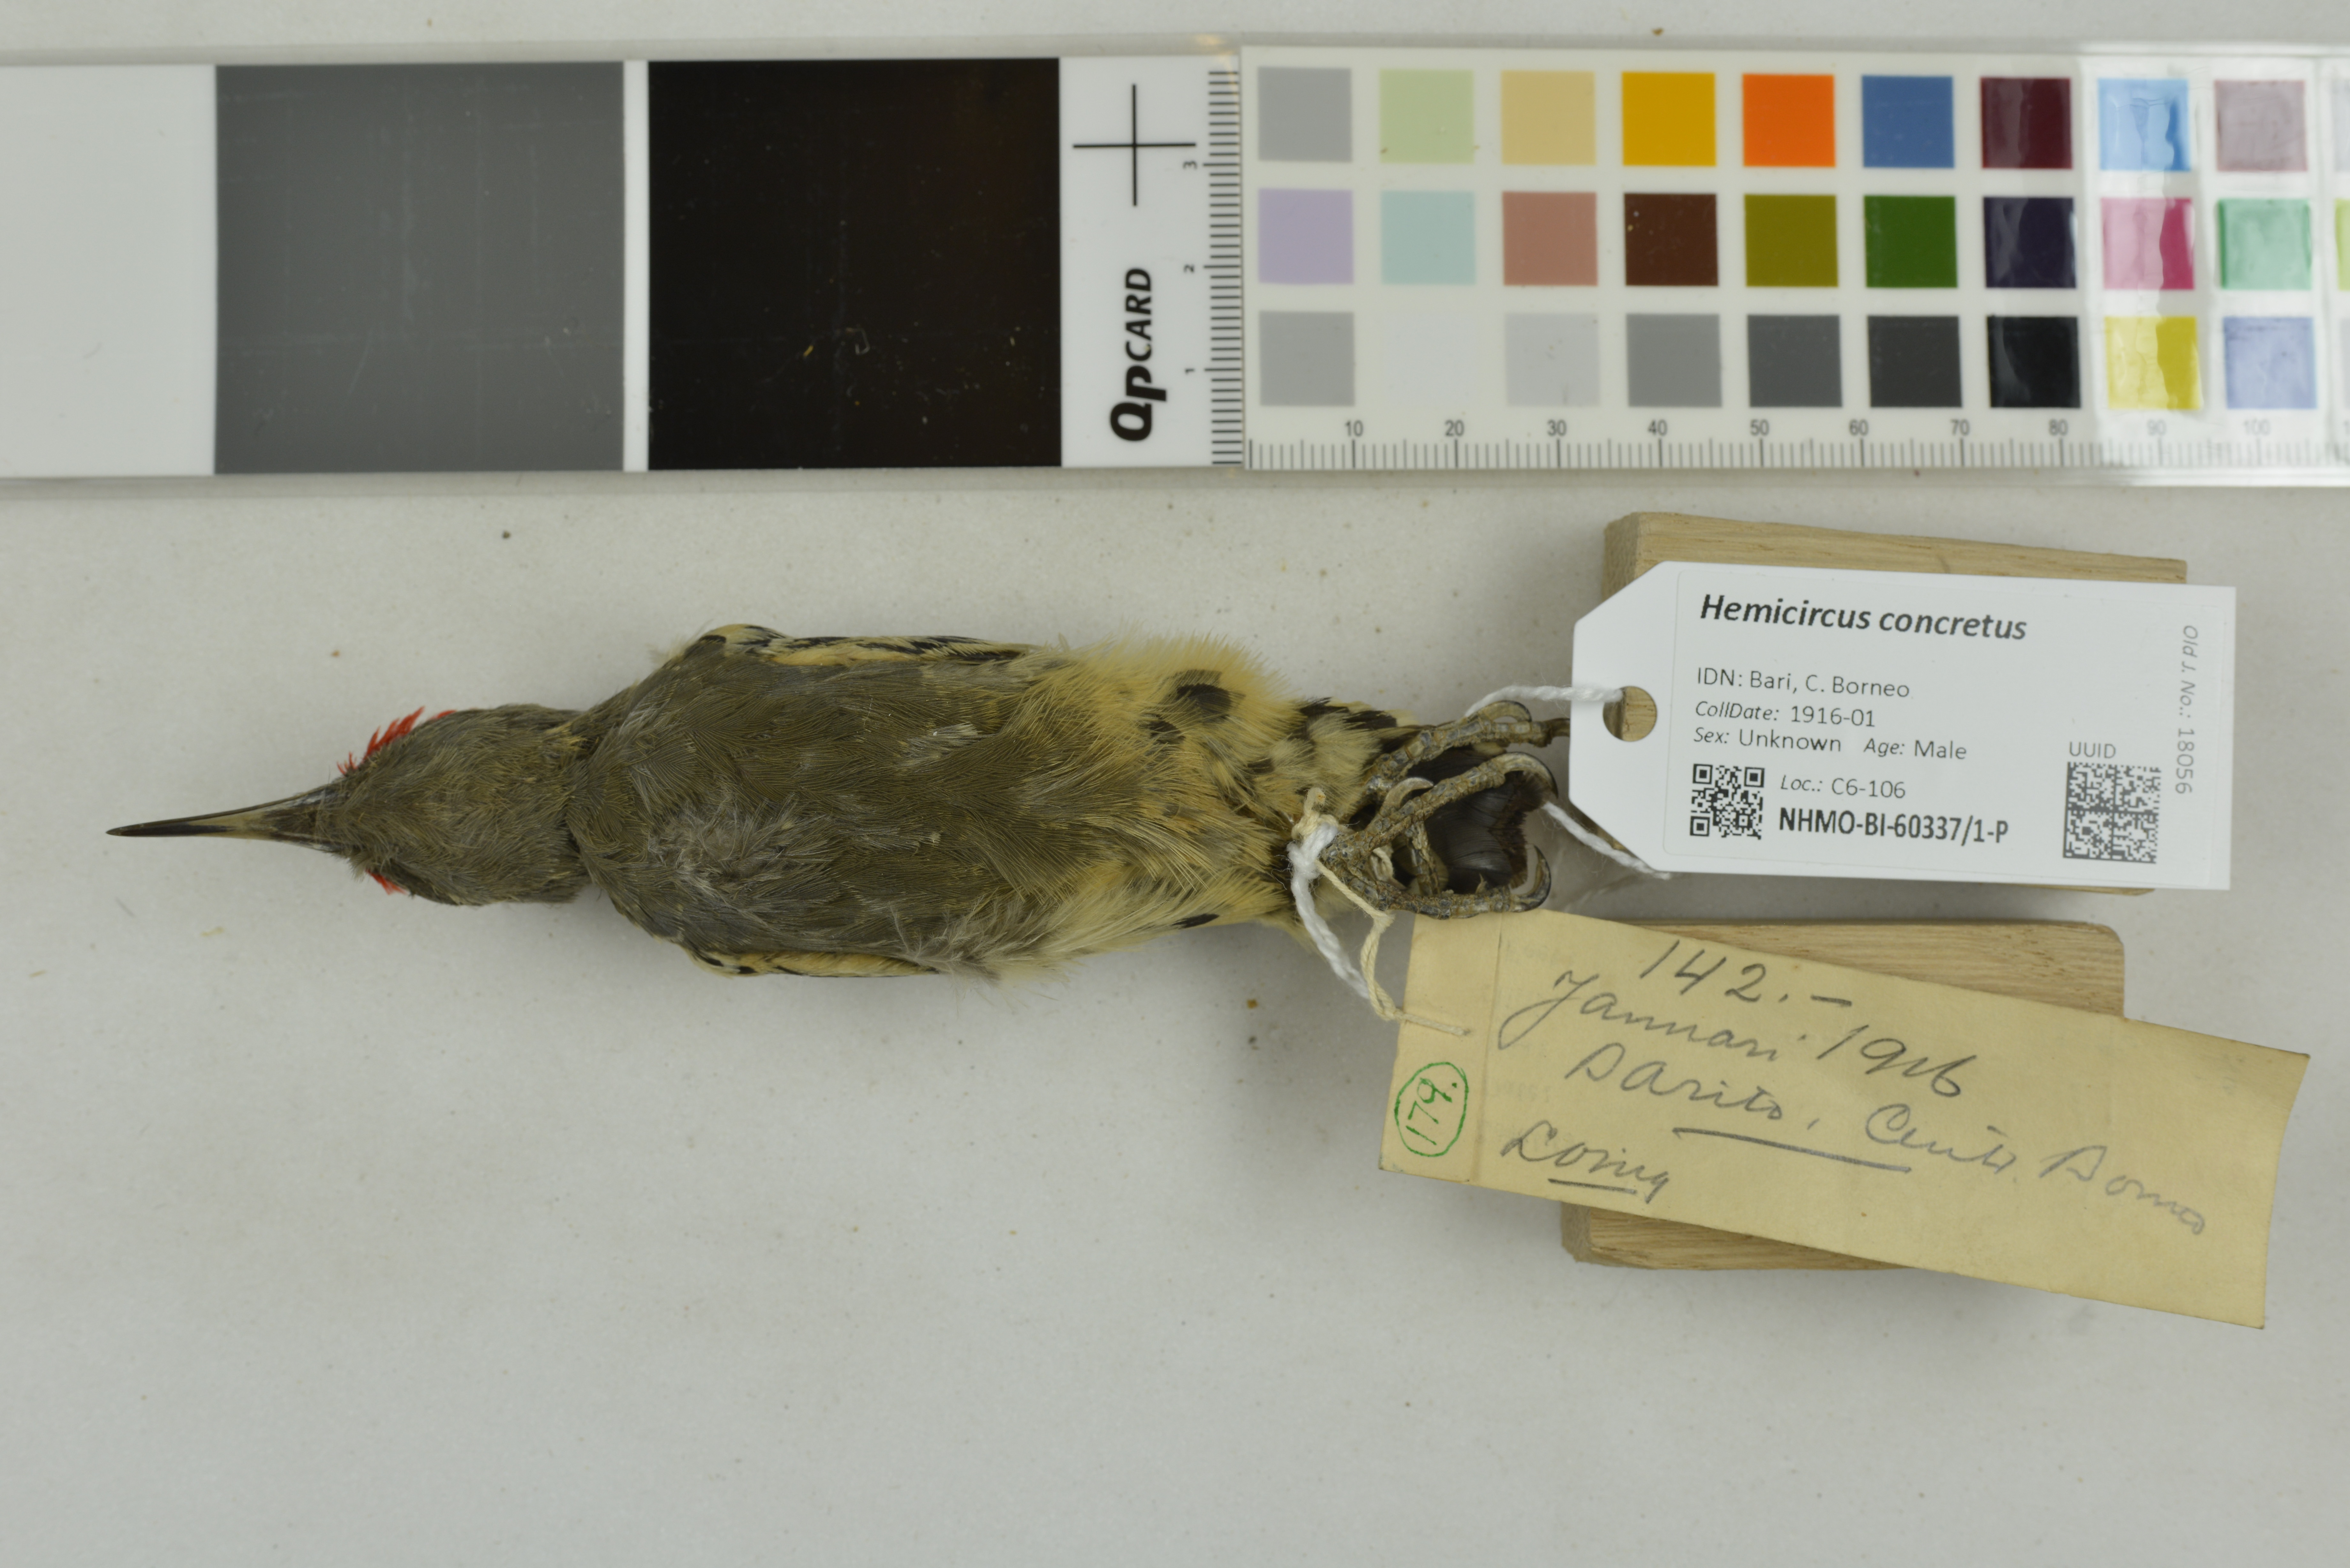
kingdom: Animalia
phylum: Chordata
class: Aves
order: Piciformes
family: Picidae
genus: Hemicircus
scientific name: Hemicircus concretus
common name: Grey-and-buff woodpecker
